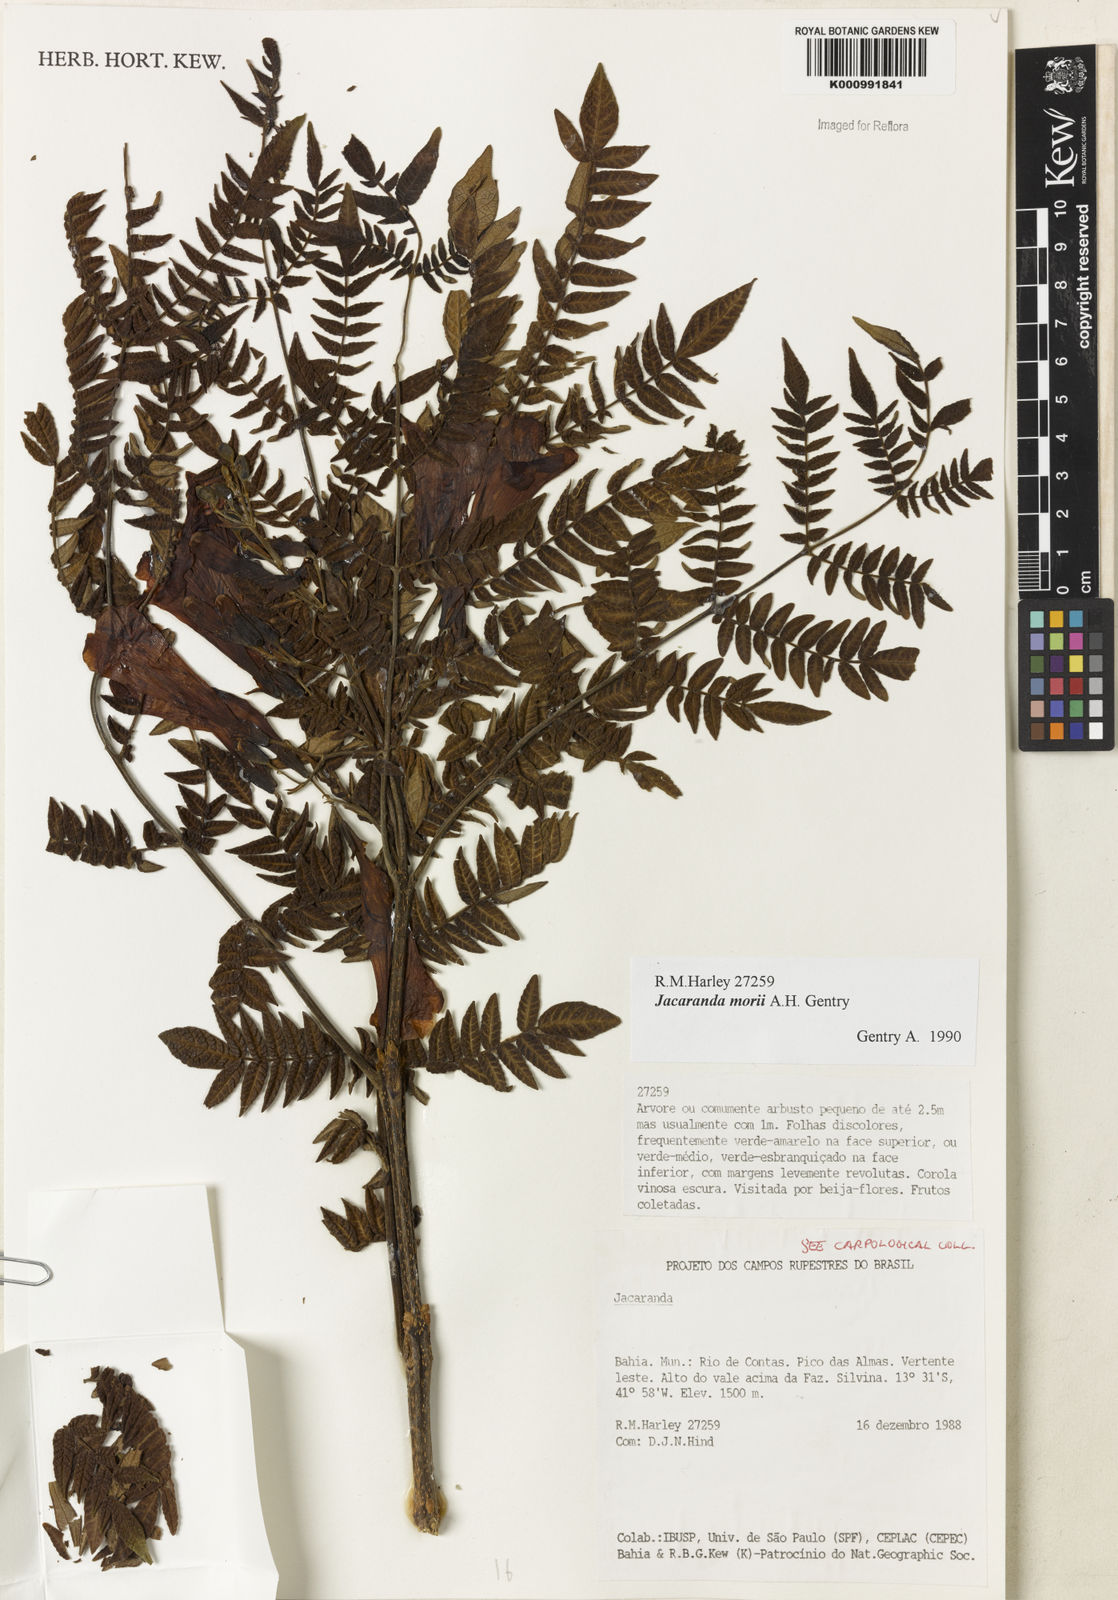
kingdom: Plantae
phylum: Tracheophyta
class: Magnoliopsida
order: Lamiales
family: Bignoniaceae
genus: Jacaranda
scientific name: Jacaranda ulei
